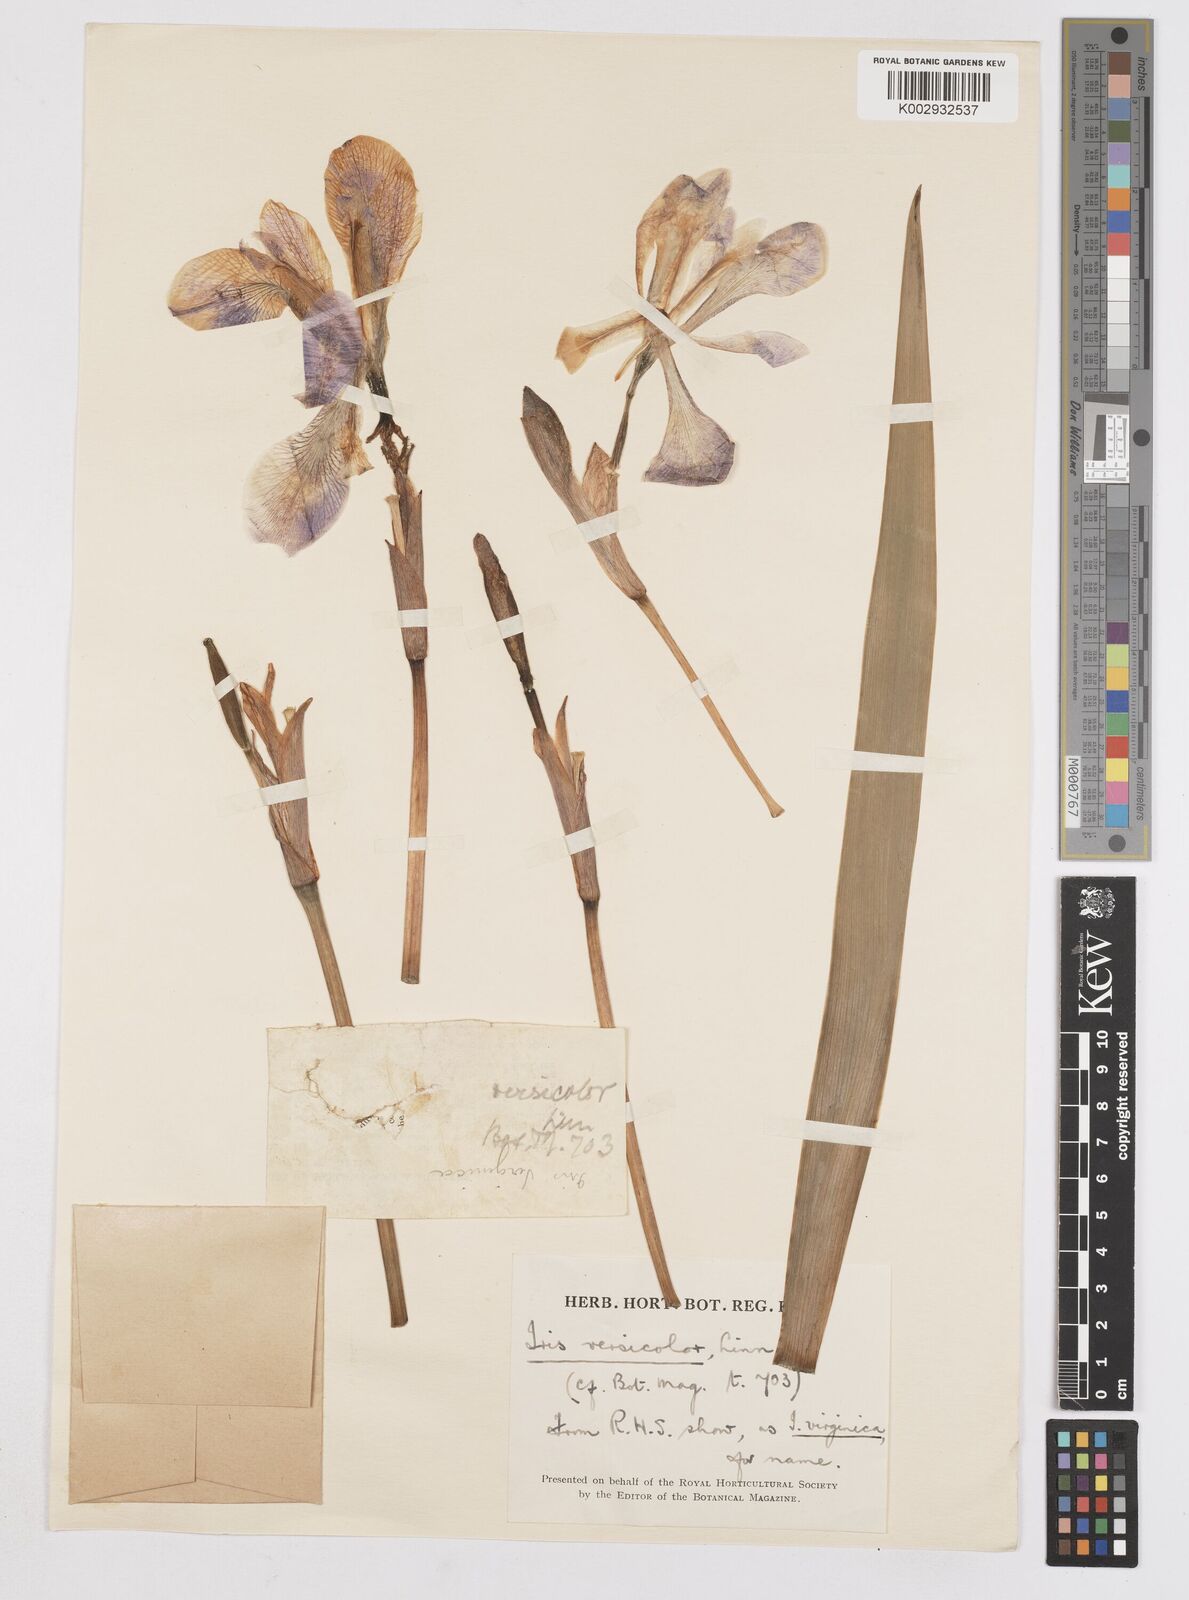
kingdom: Plantae
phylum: Tracheophyta
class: Liliopsida
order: Asparagales
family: Iridaceae
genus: Iris
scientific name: Iris versicolor
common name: Purple iris
